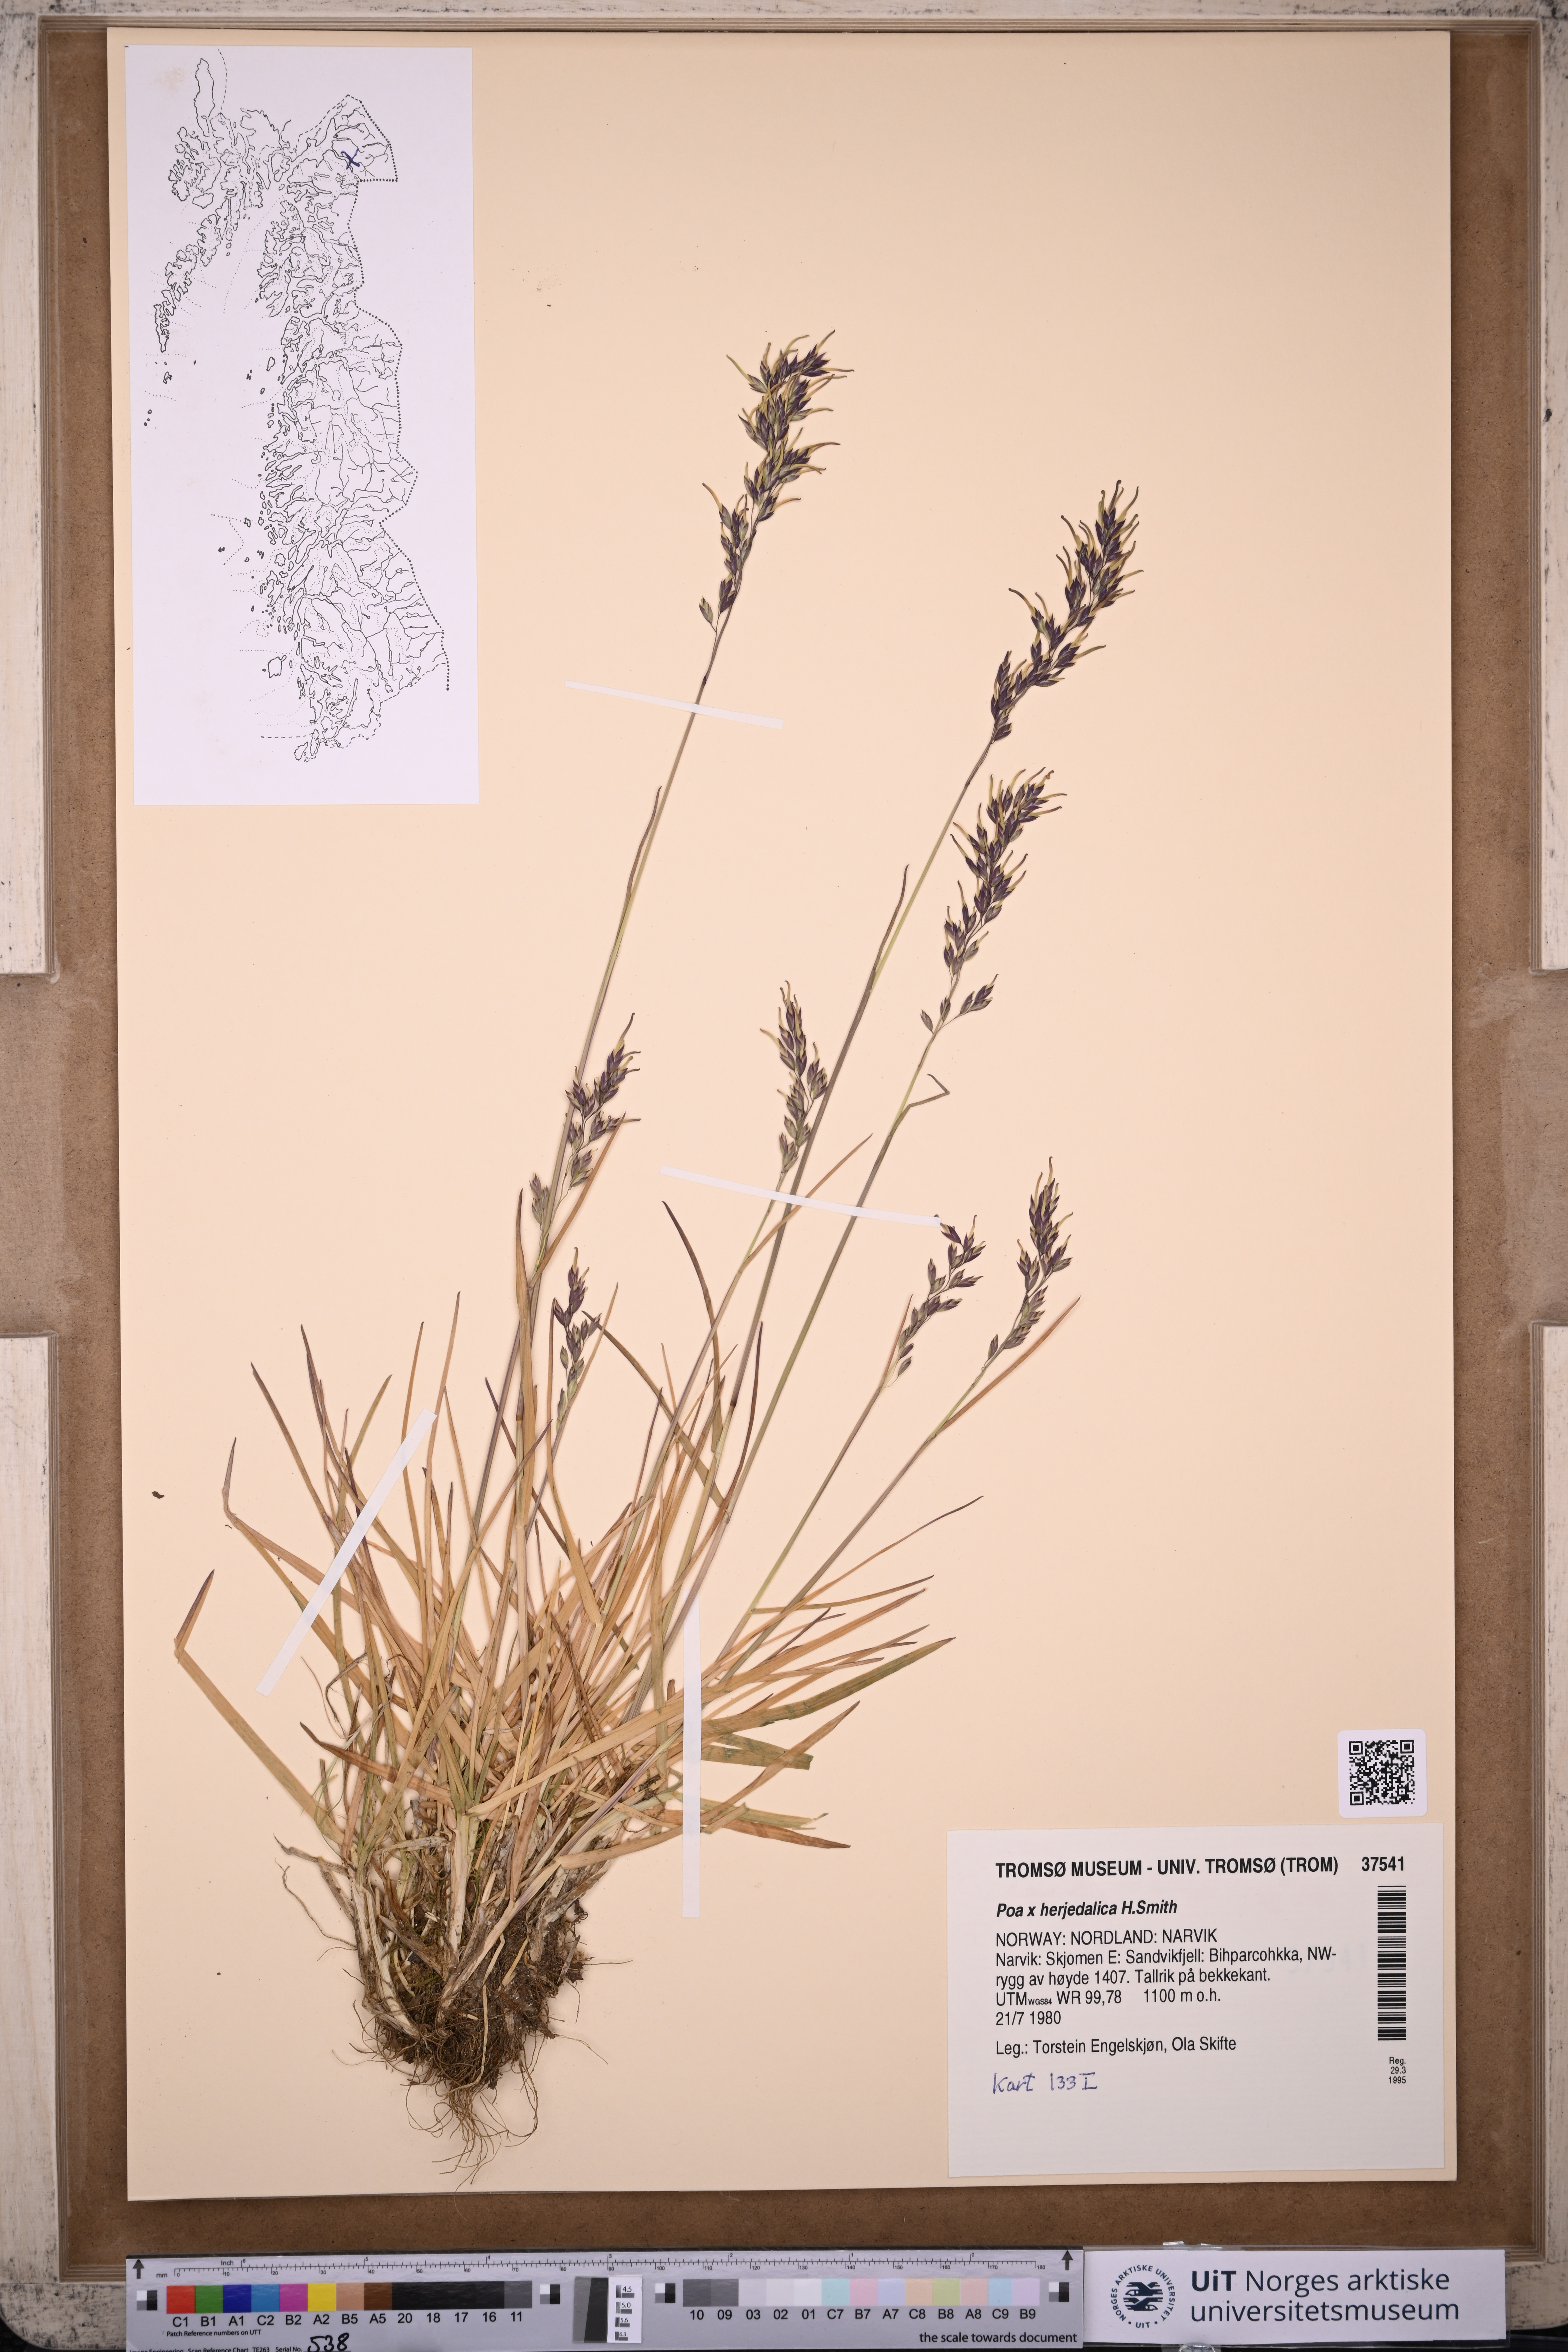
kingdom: Plantae
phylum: Tracheophyta
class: Liliopsida
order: Poales
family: Poaceae
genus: Poa
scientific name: Poa herjedalica
